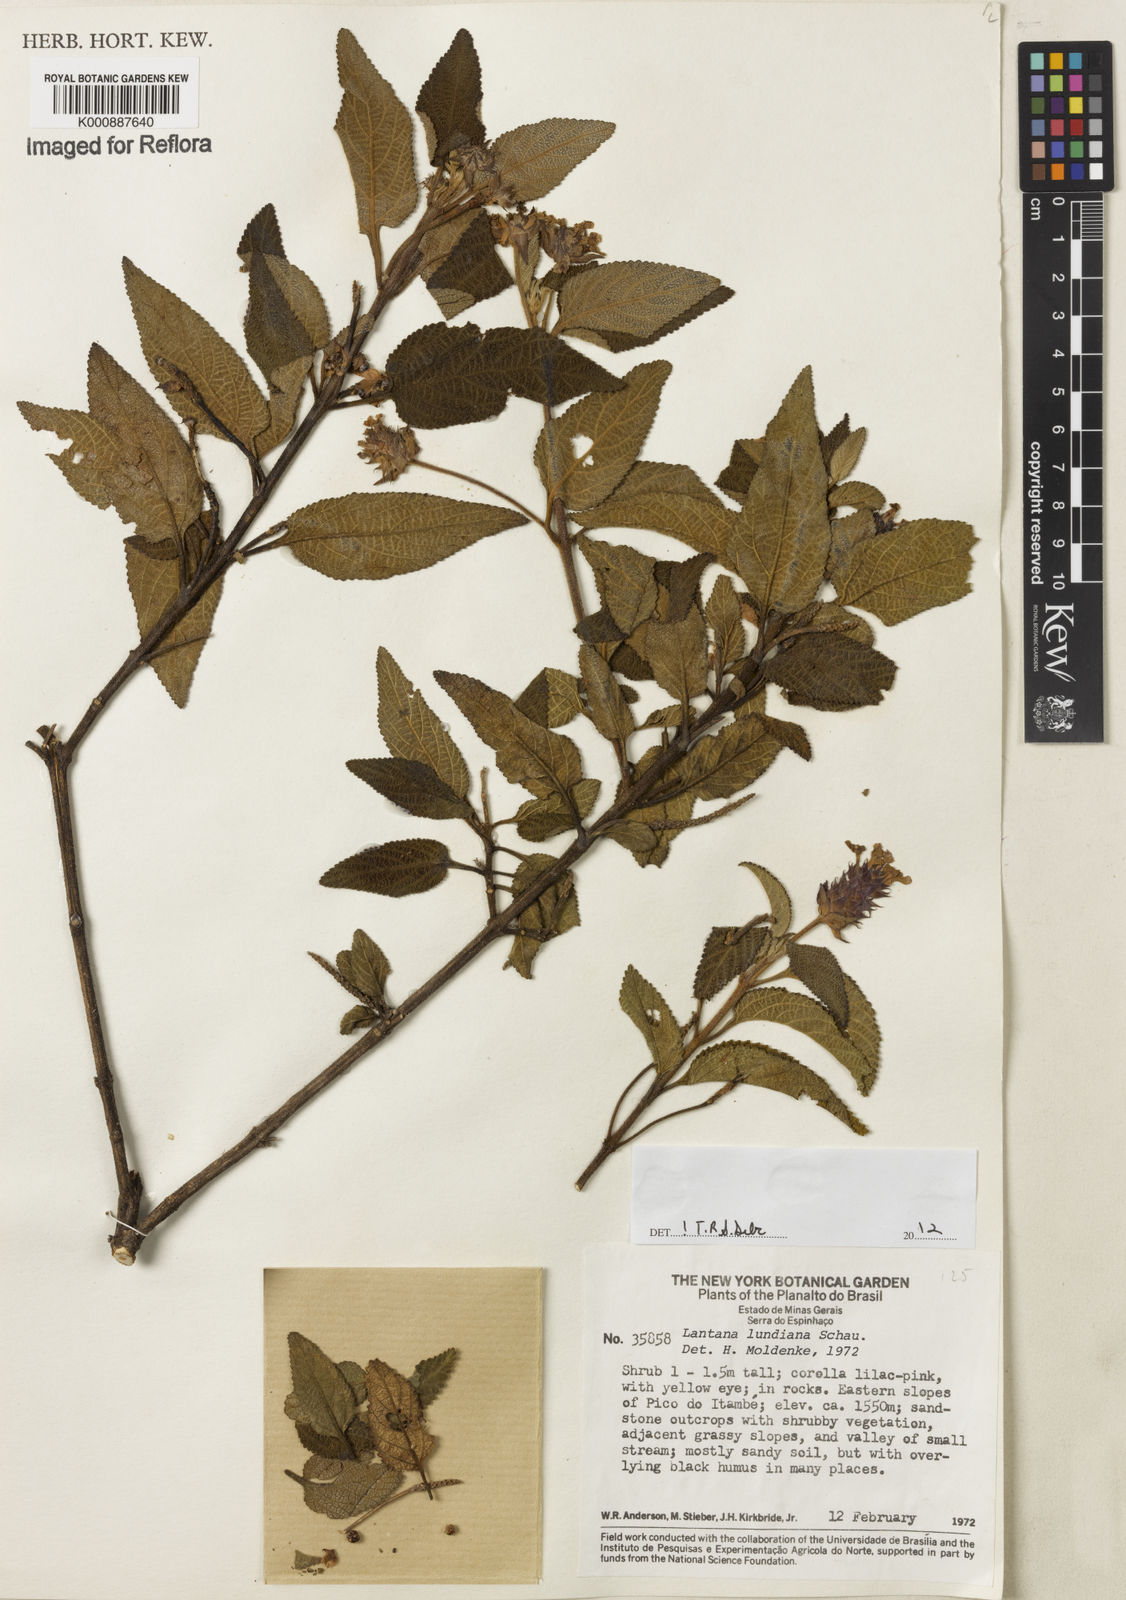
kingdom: Plantae
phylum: Tracheophyta
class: Magnoliopsida
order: Lamiales
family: Verbenaceae
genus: Lantana
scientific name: Lantana lundiana
